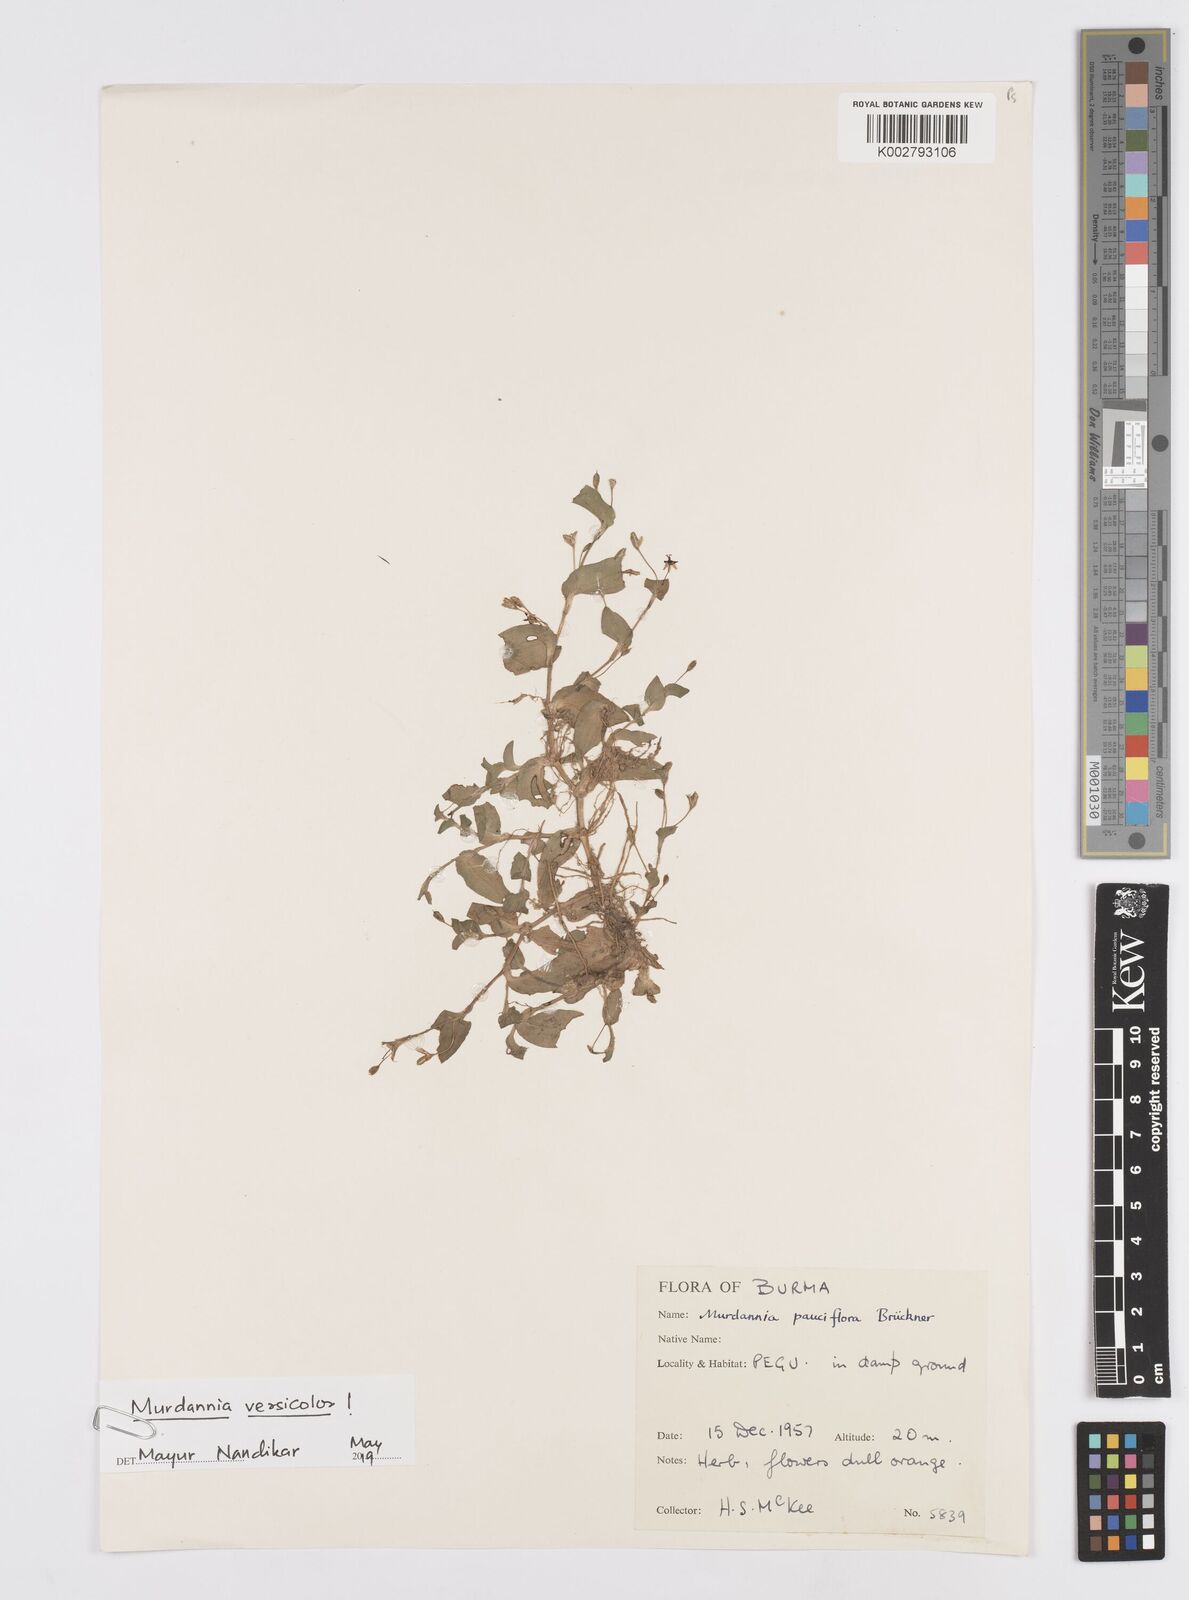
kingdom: Plantae
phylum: Tracheophyta
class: Liliopsida
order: Commelinales
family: Commelinaceae
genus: Murdannia
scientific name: Murdannia pauciflora
